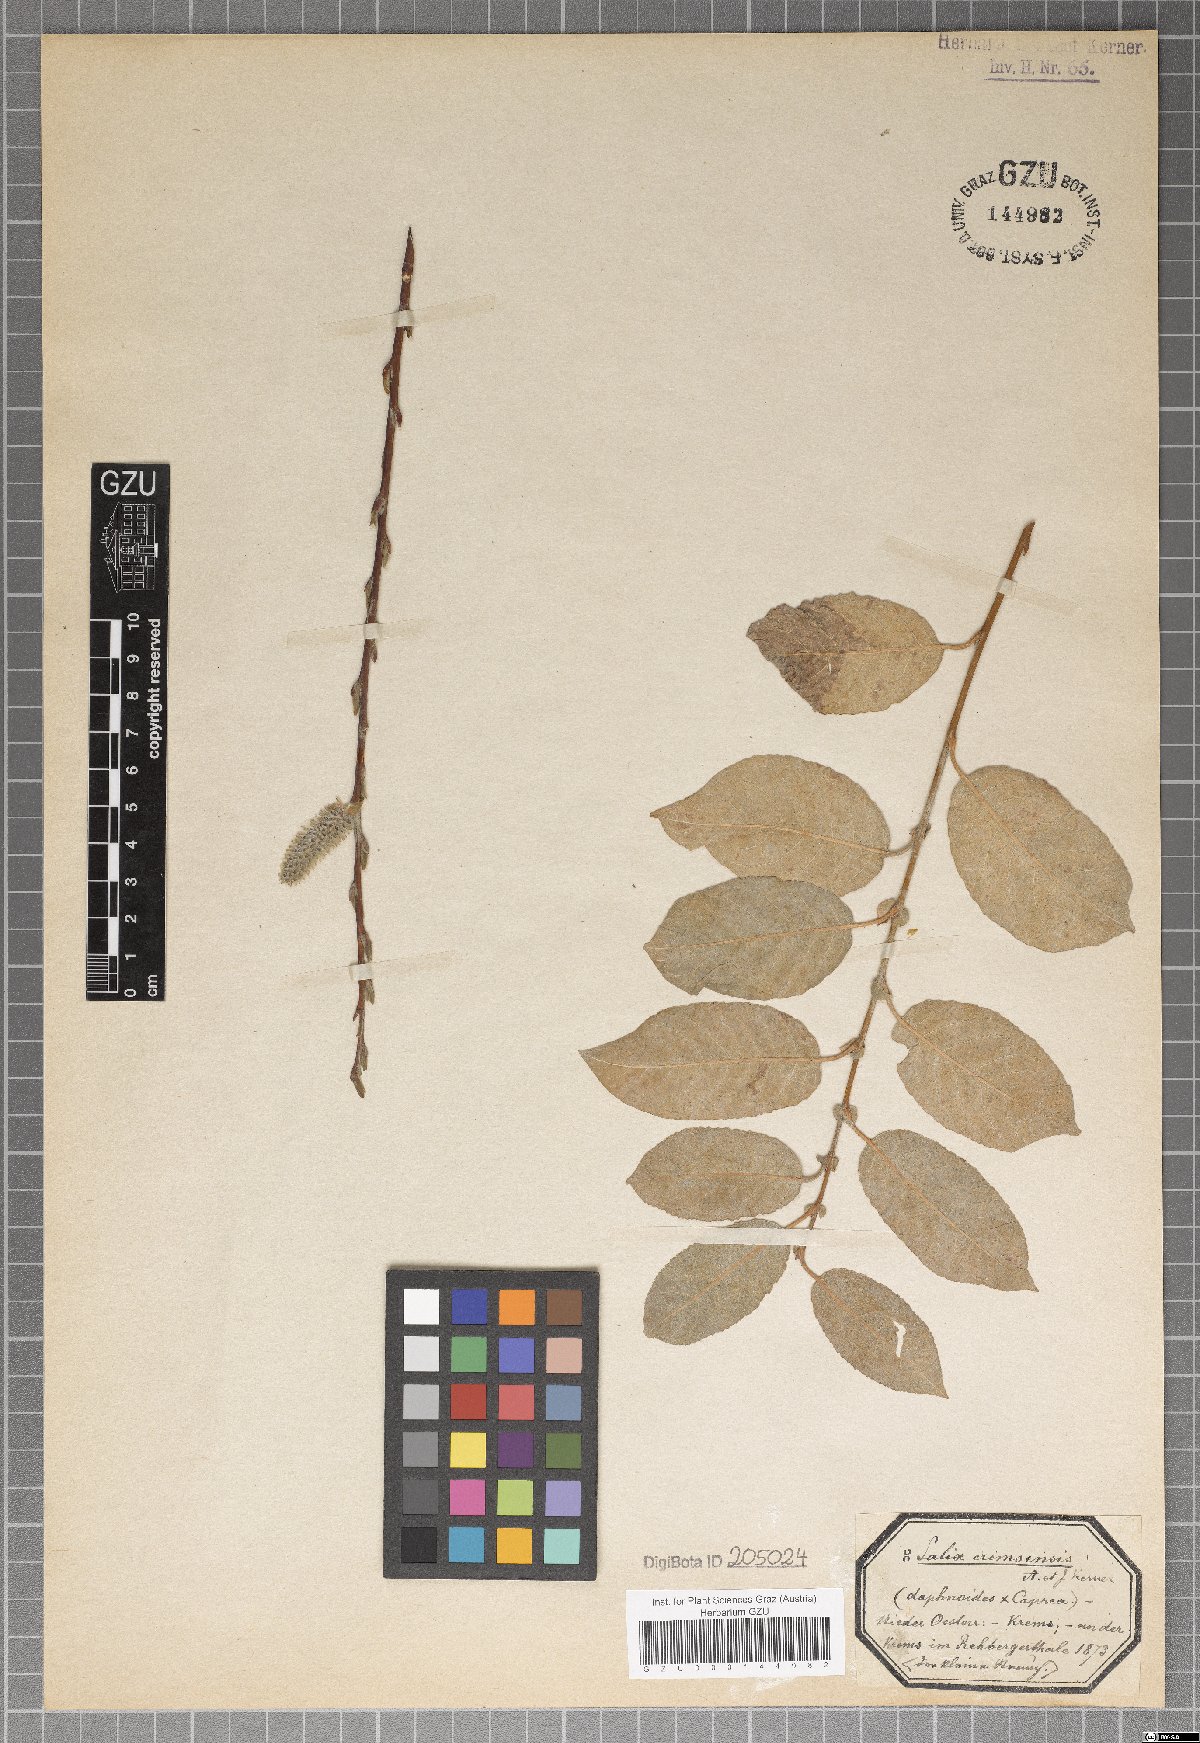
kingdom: Plantae
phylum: Tracheophyta
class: Magnoliopsida
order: Malpighiales
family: Salicaceae
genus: Salix
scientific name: Salix erdingeri
